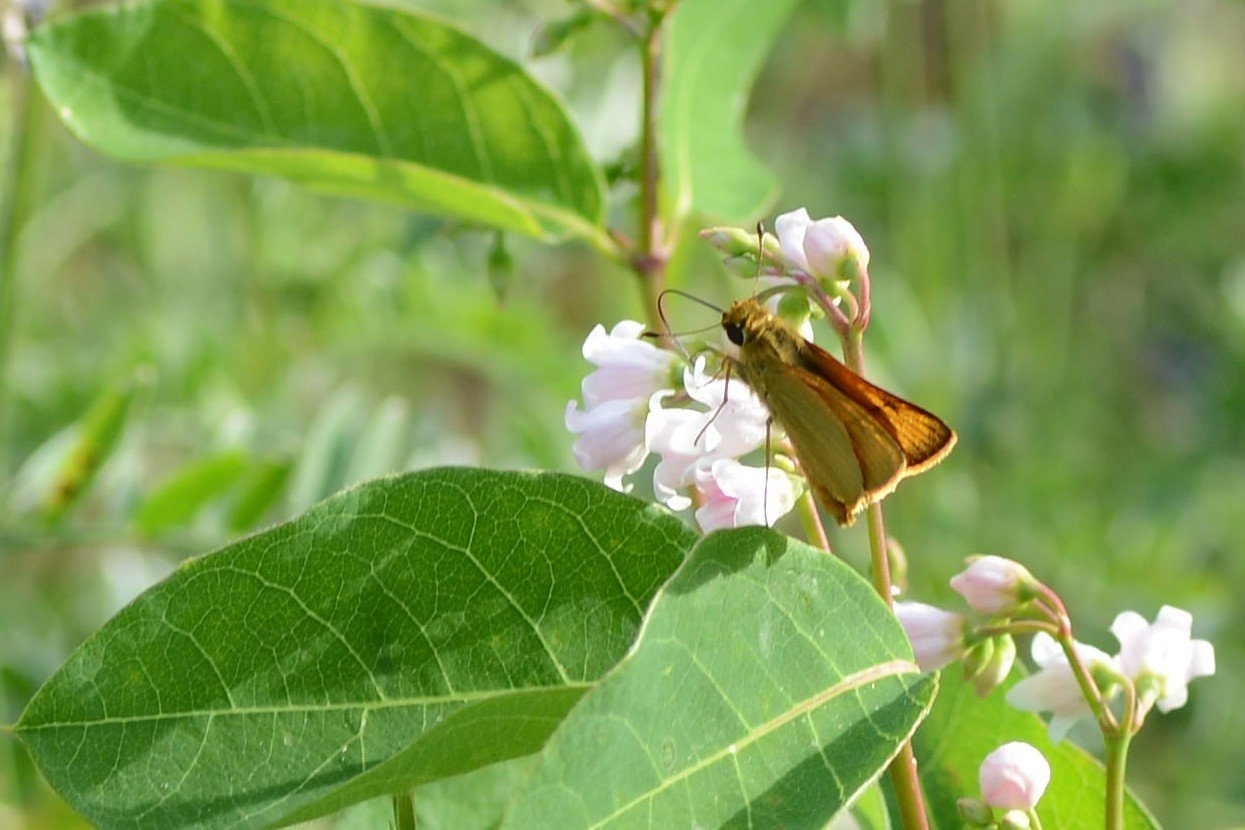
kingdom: Animalia
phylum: Arthropoda
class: Insecta
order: Lepidoptera
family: Hesperiidae
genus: Atrytone
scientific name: Atrytone delaware
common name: Delaware Skipper
